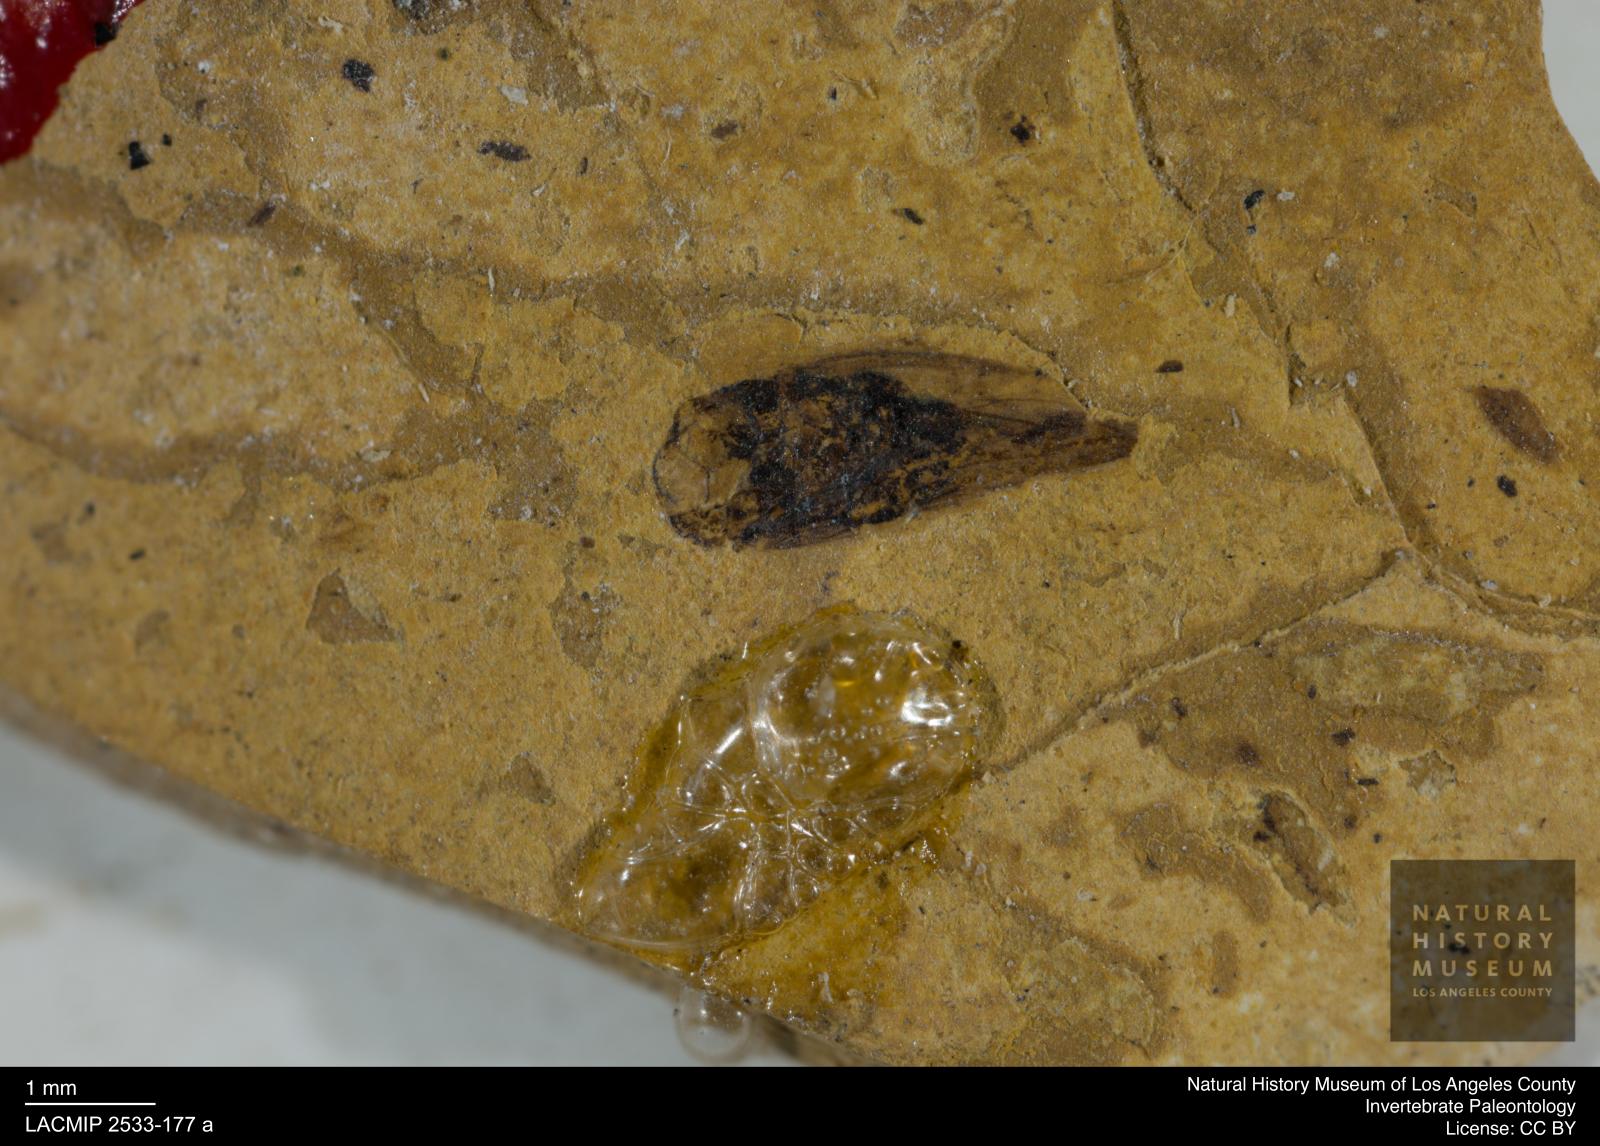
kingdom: Animalia
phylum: Arthropoda
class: Insecta
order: Hemiptera
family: Cicadellidae
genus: Idiocerus
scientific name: Idiocerus goeckei
